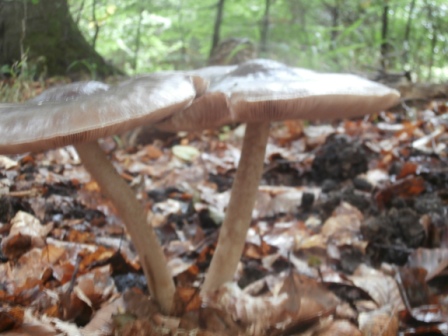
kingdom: Fungi
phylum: Basidiomycota
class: Agaricomycetes
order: Agaricales
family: Pluteaceae
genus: Pluteus
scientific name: Pluteus cervinus
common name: sodfarvet skærmhat
